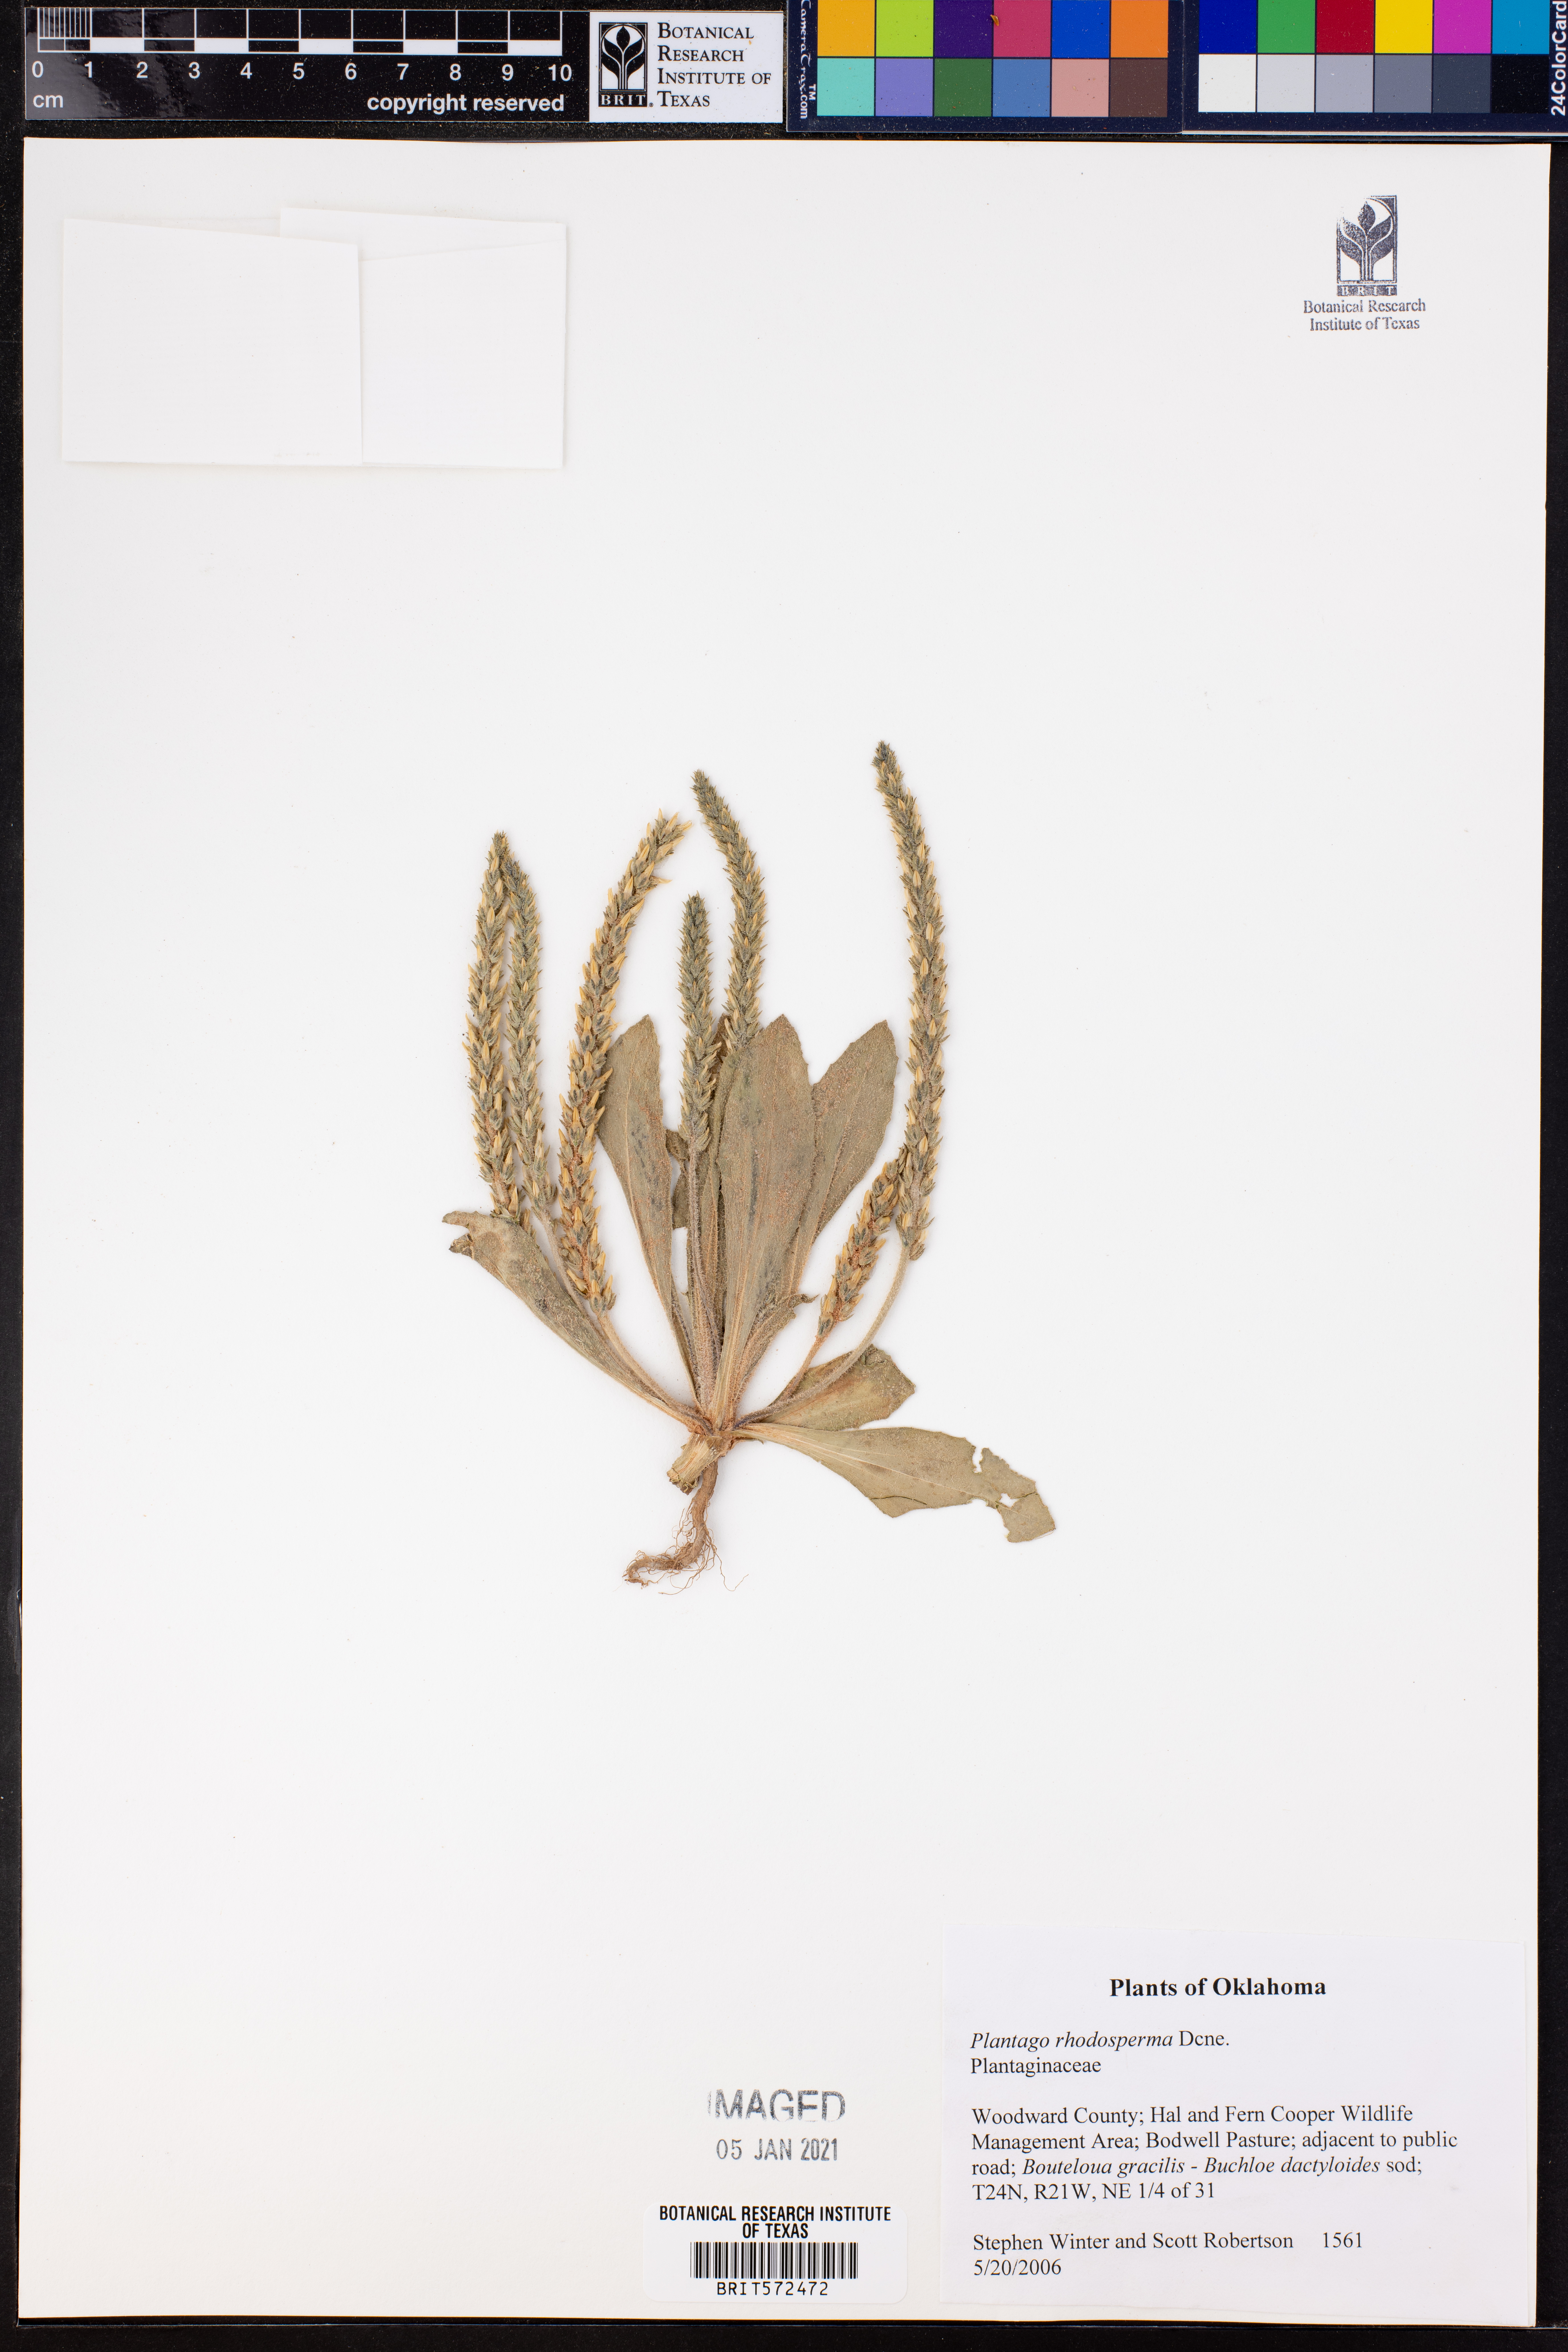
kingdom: Plantae
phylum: Tracheophyta
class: Magnoliopsida
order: Lamiales
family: Plantaginaceae
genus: Plantago
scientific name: Plantago rhodosperma
